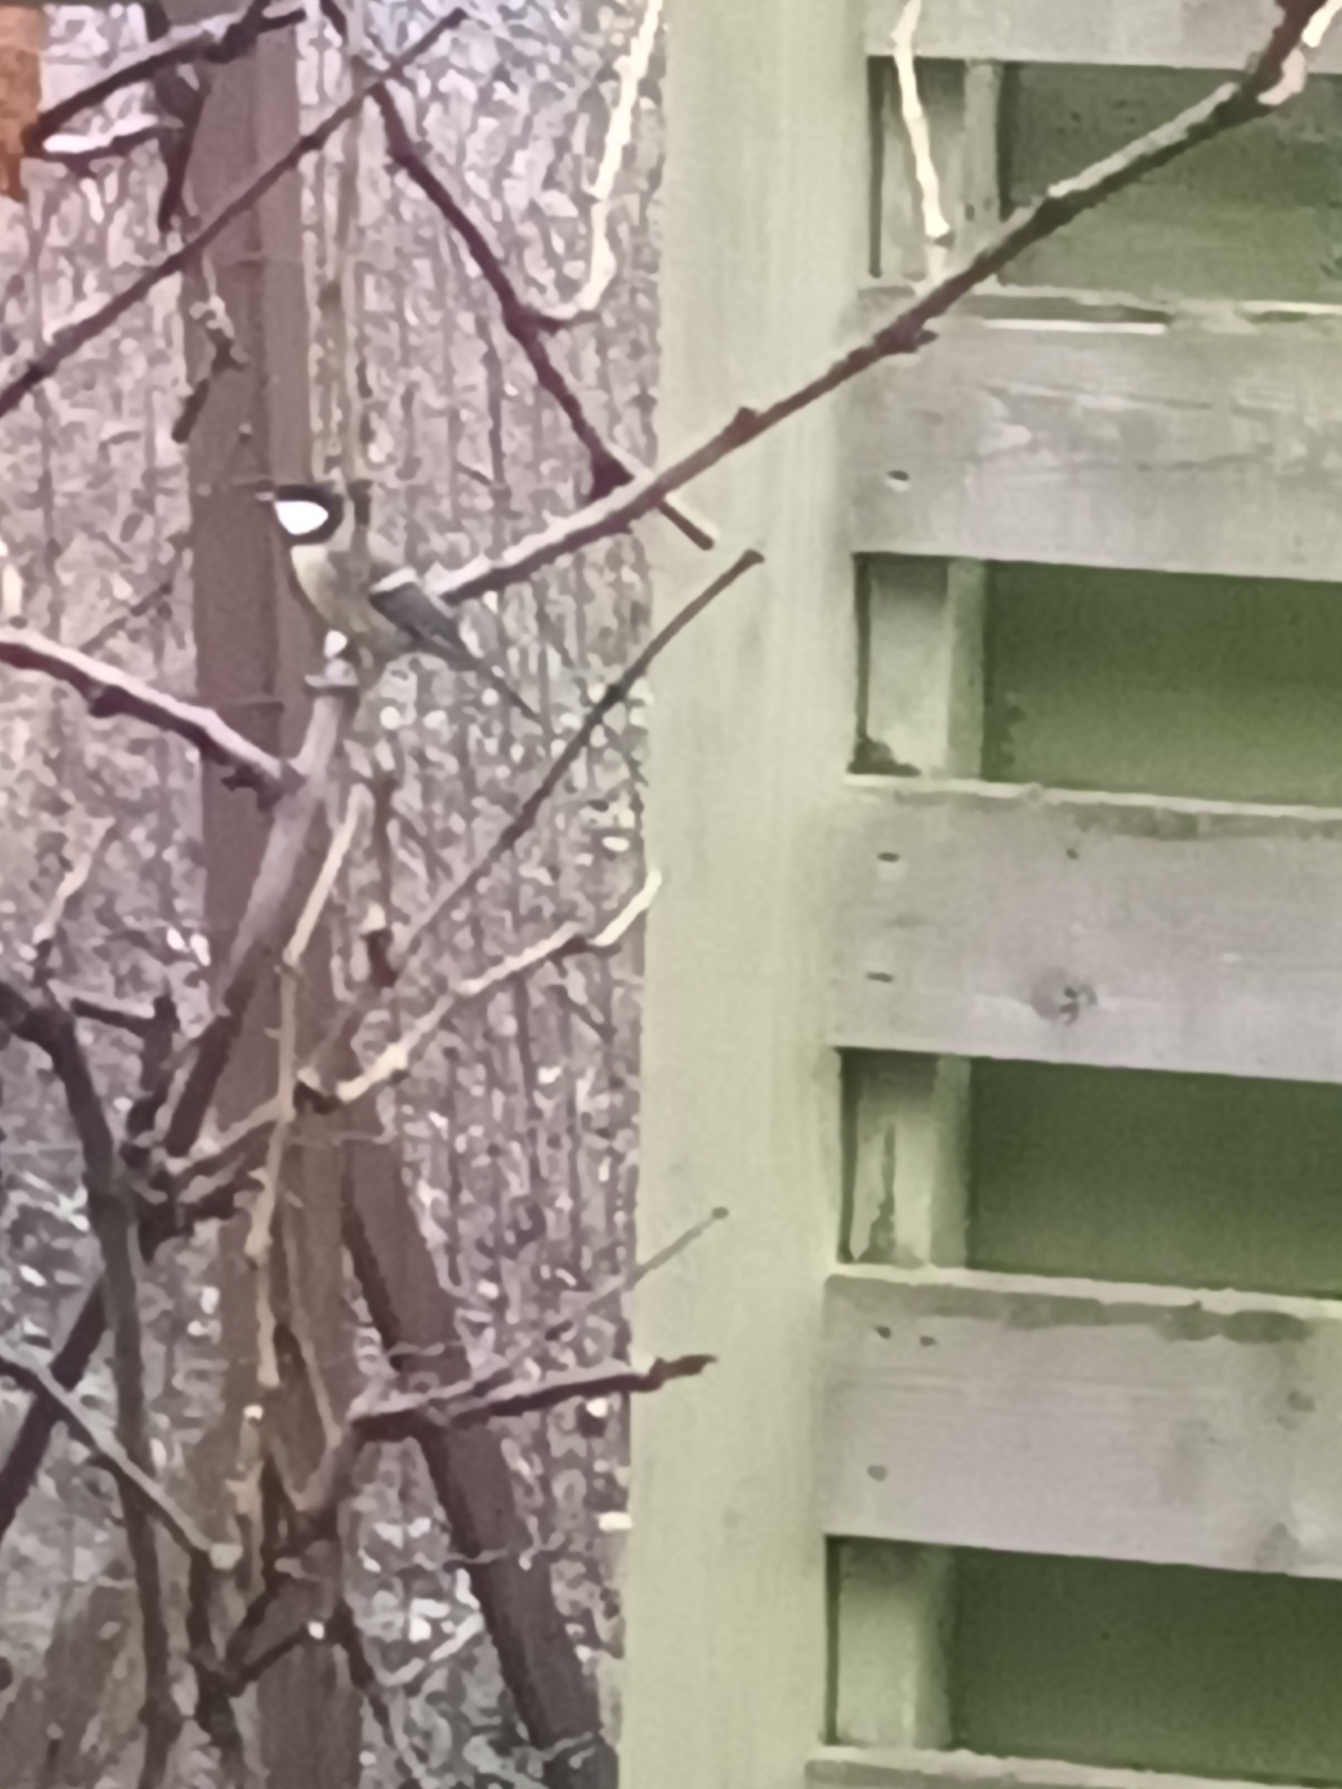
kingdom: Animalia
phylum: Chordata
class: Aves
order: Passeriformes
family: Paridae
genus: Parus
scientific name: Parus major
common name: Musvit
